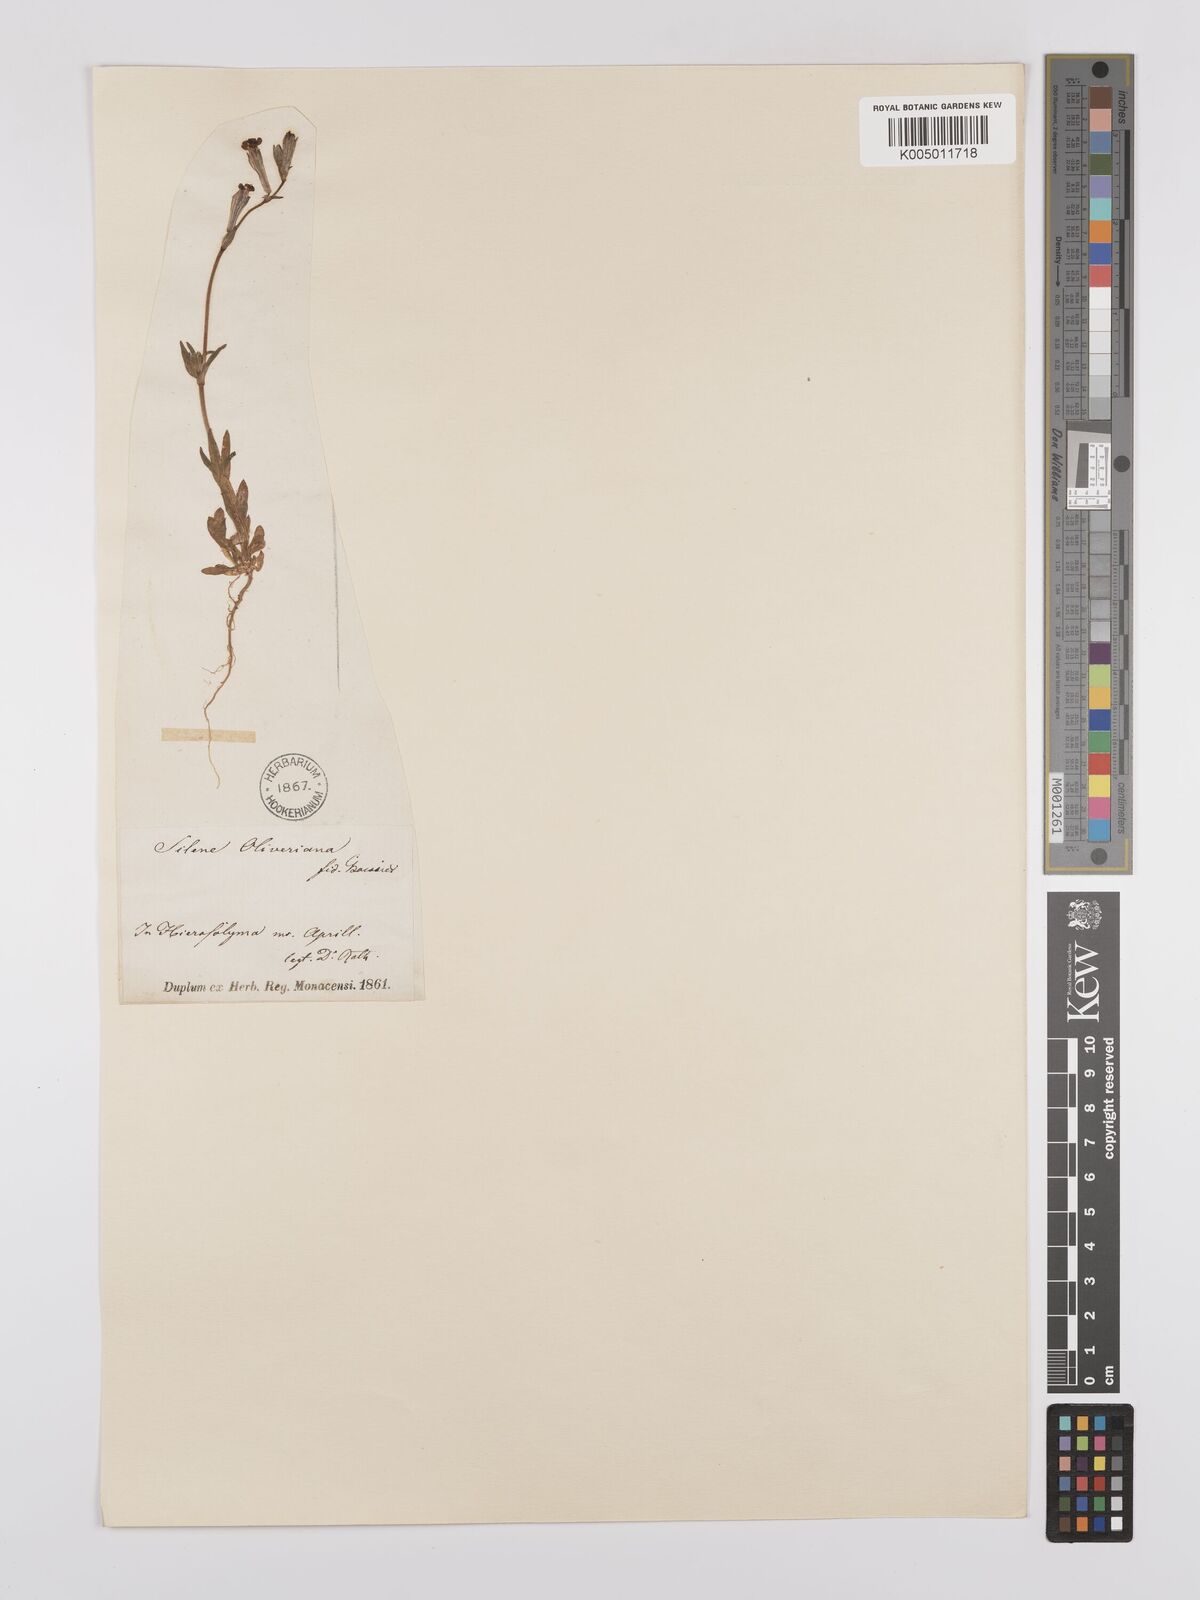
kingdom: Plantae
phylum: Tracheophyta
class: Magnoliopsida
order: Caryophyllales
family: Caryophyllaceae
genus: Silene
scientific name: Silene
